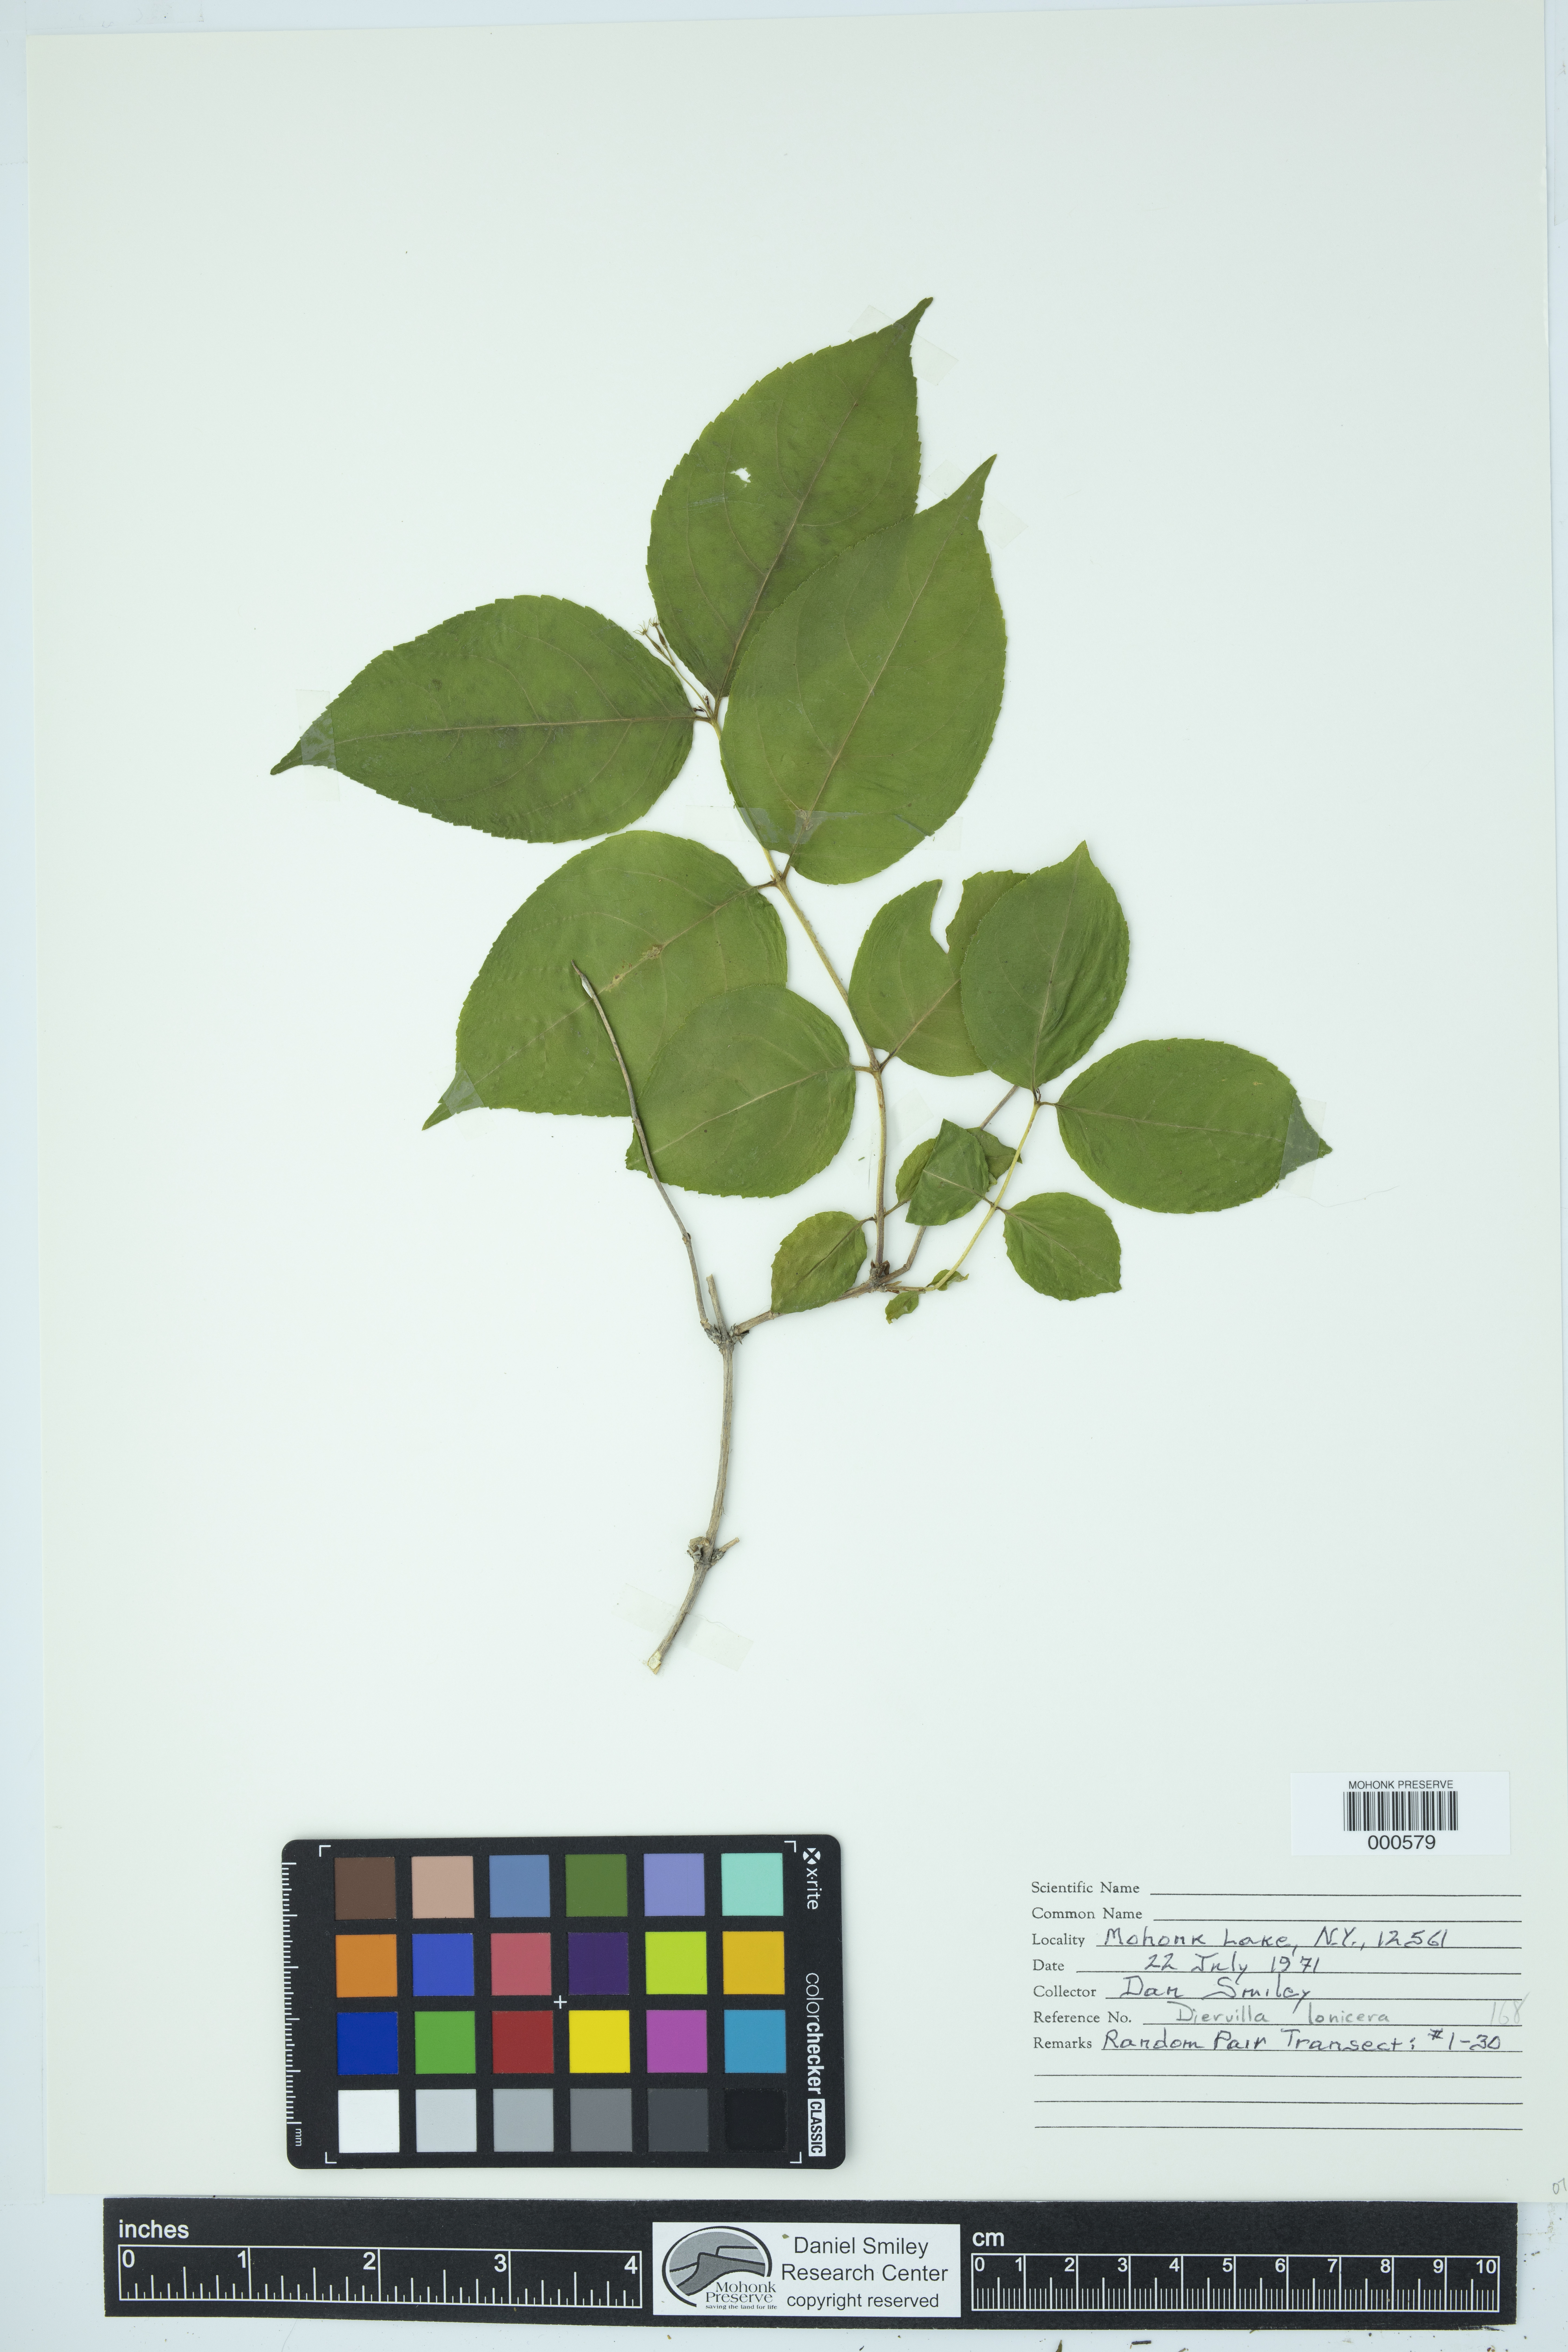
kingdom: Plantae
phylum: Tracheophyta
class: Magnoliopsida
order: Dipsacales
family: Caprifoliaceae
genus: Diervilla
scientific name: Diervilla lonicera
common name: Bush-honeysuckle
